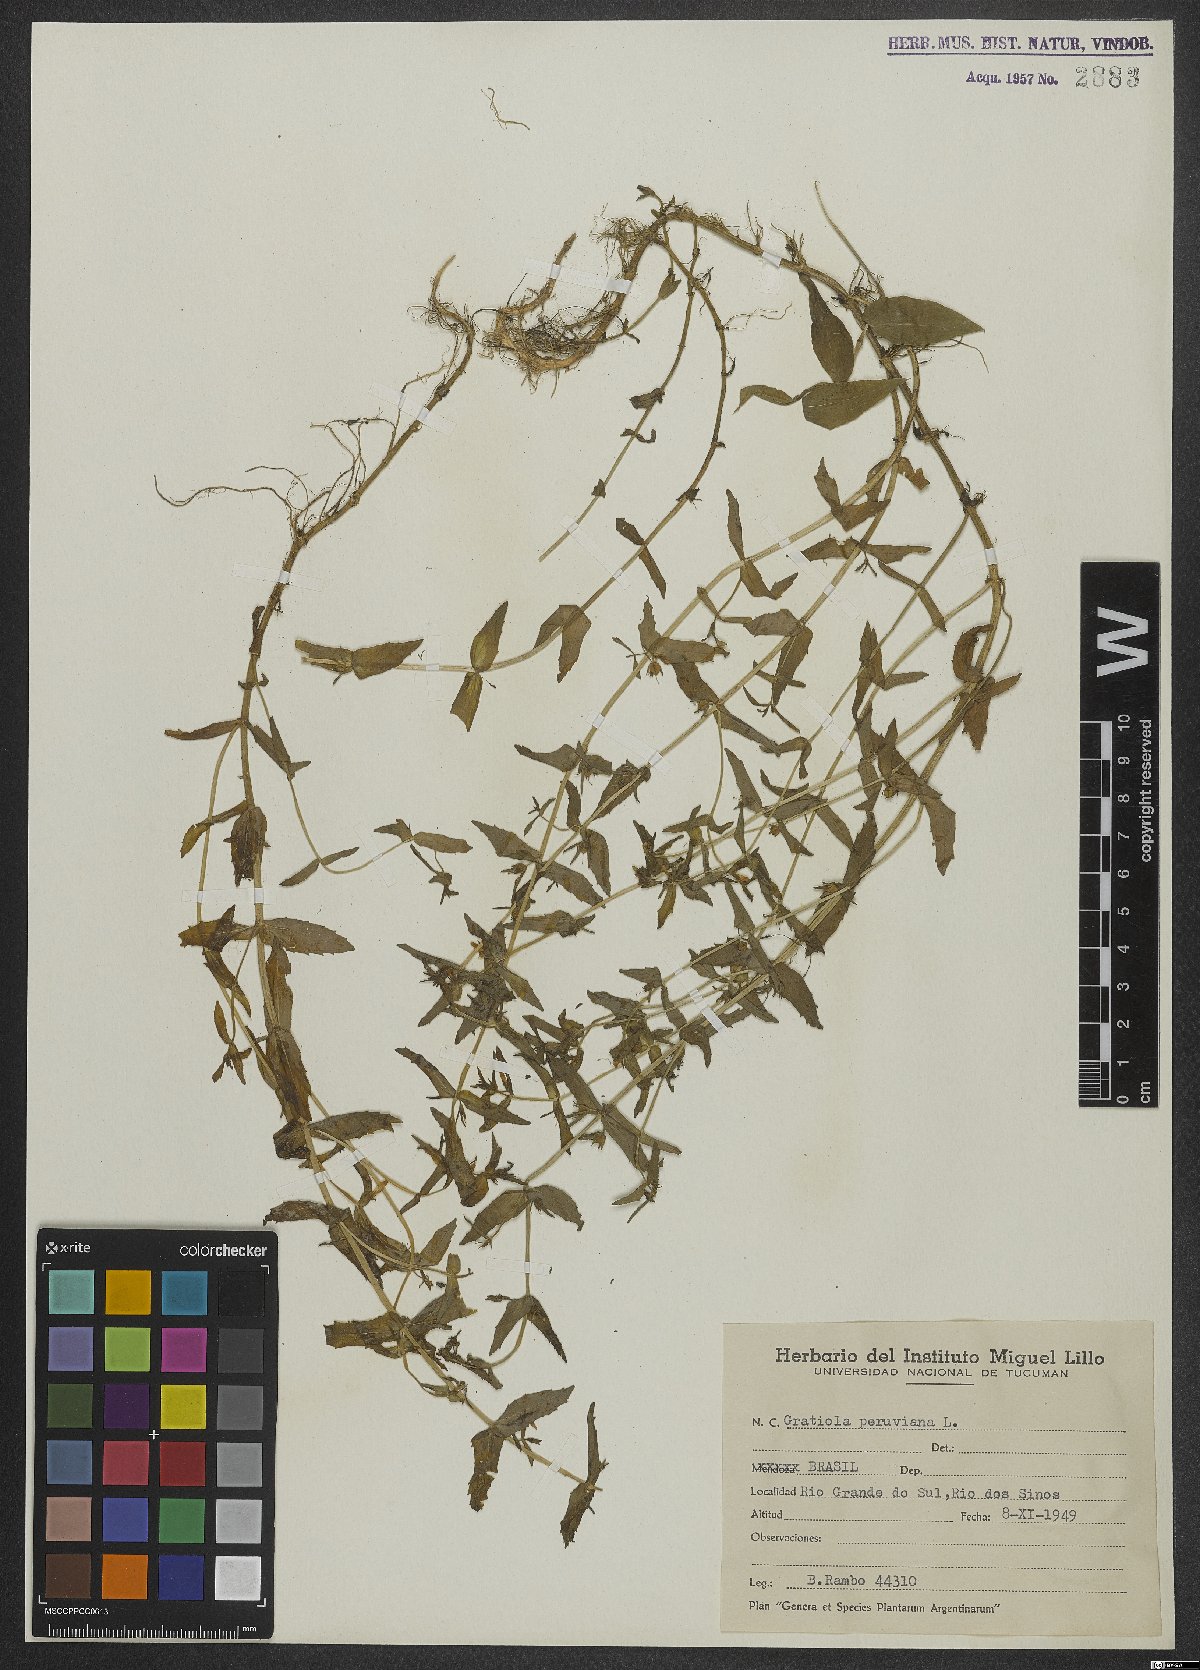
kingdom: Plantae
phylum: Tracheophyta
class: Magnoliopsida
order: Lamiales
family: Plantaginaceae
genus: Gratiola
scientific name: Gratiola peruviana
